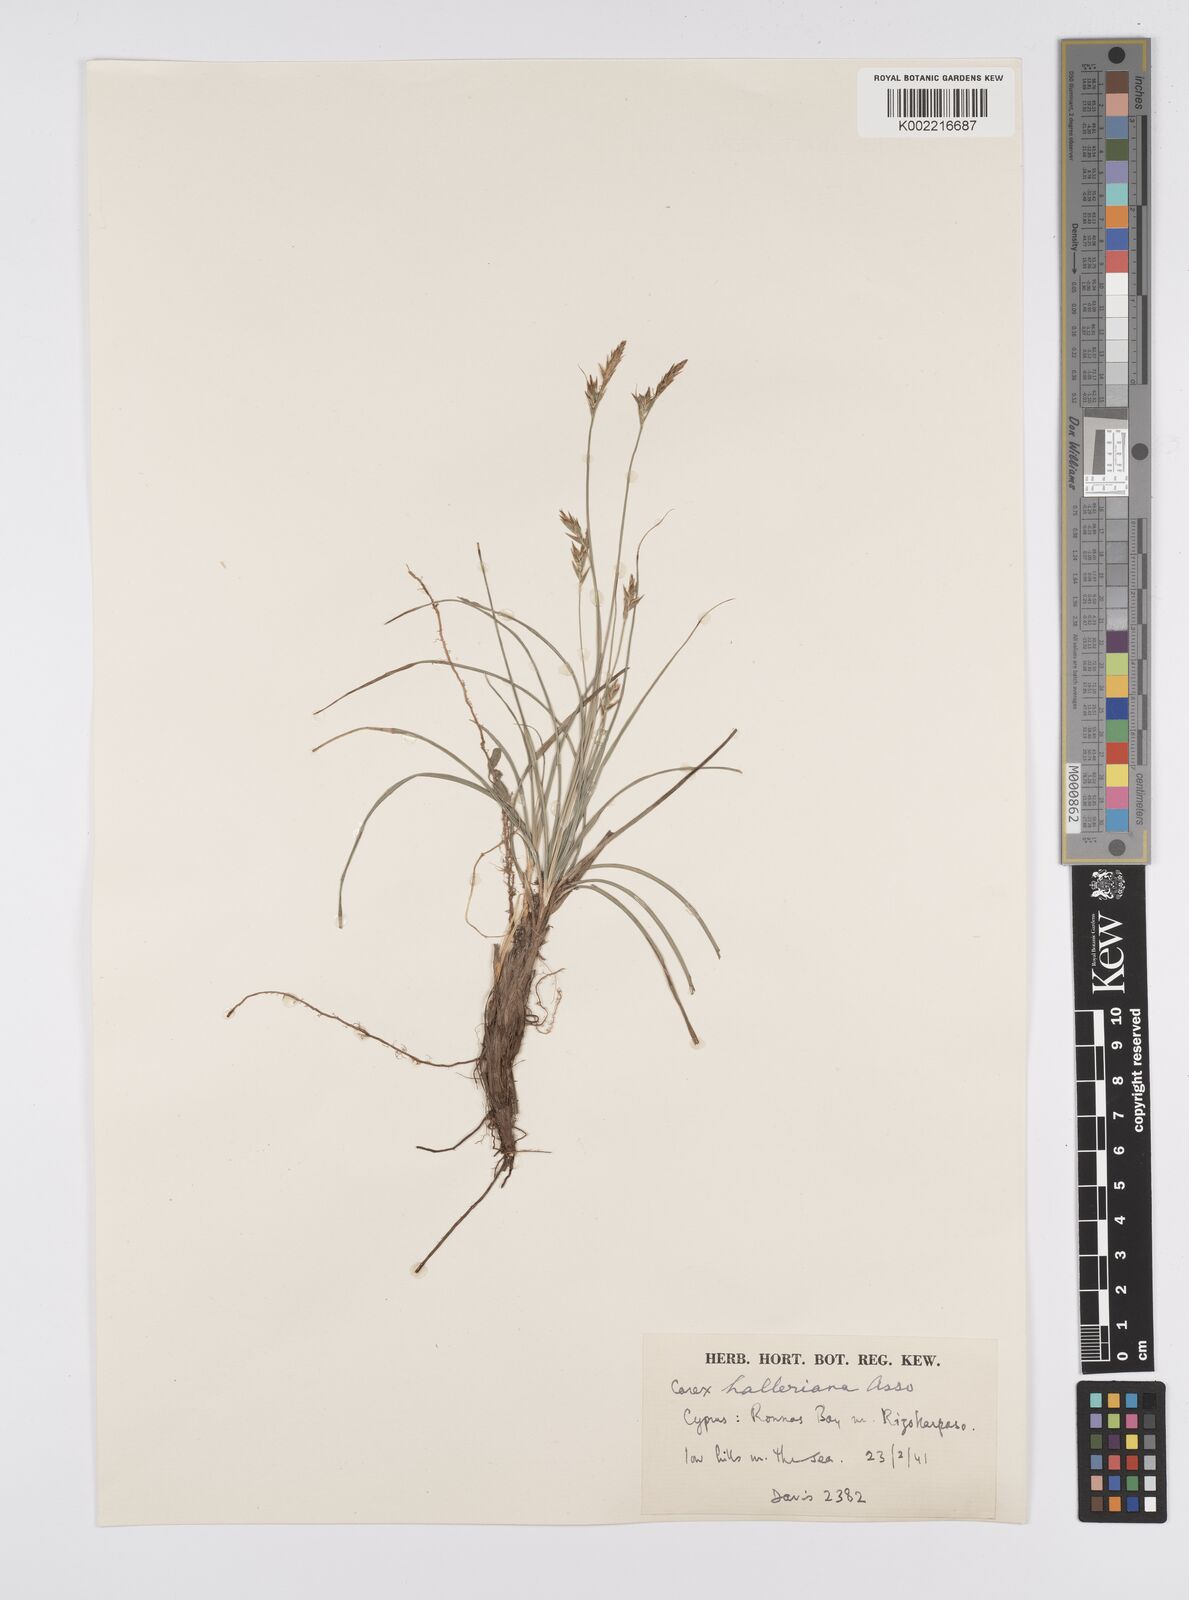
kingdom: Plantae
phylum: Tracheophyta
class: Liliopsida
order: Poales
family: Cyperaceae
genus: Carex
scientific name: Carex halleriana
